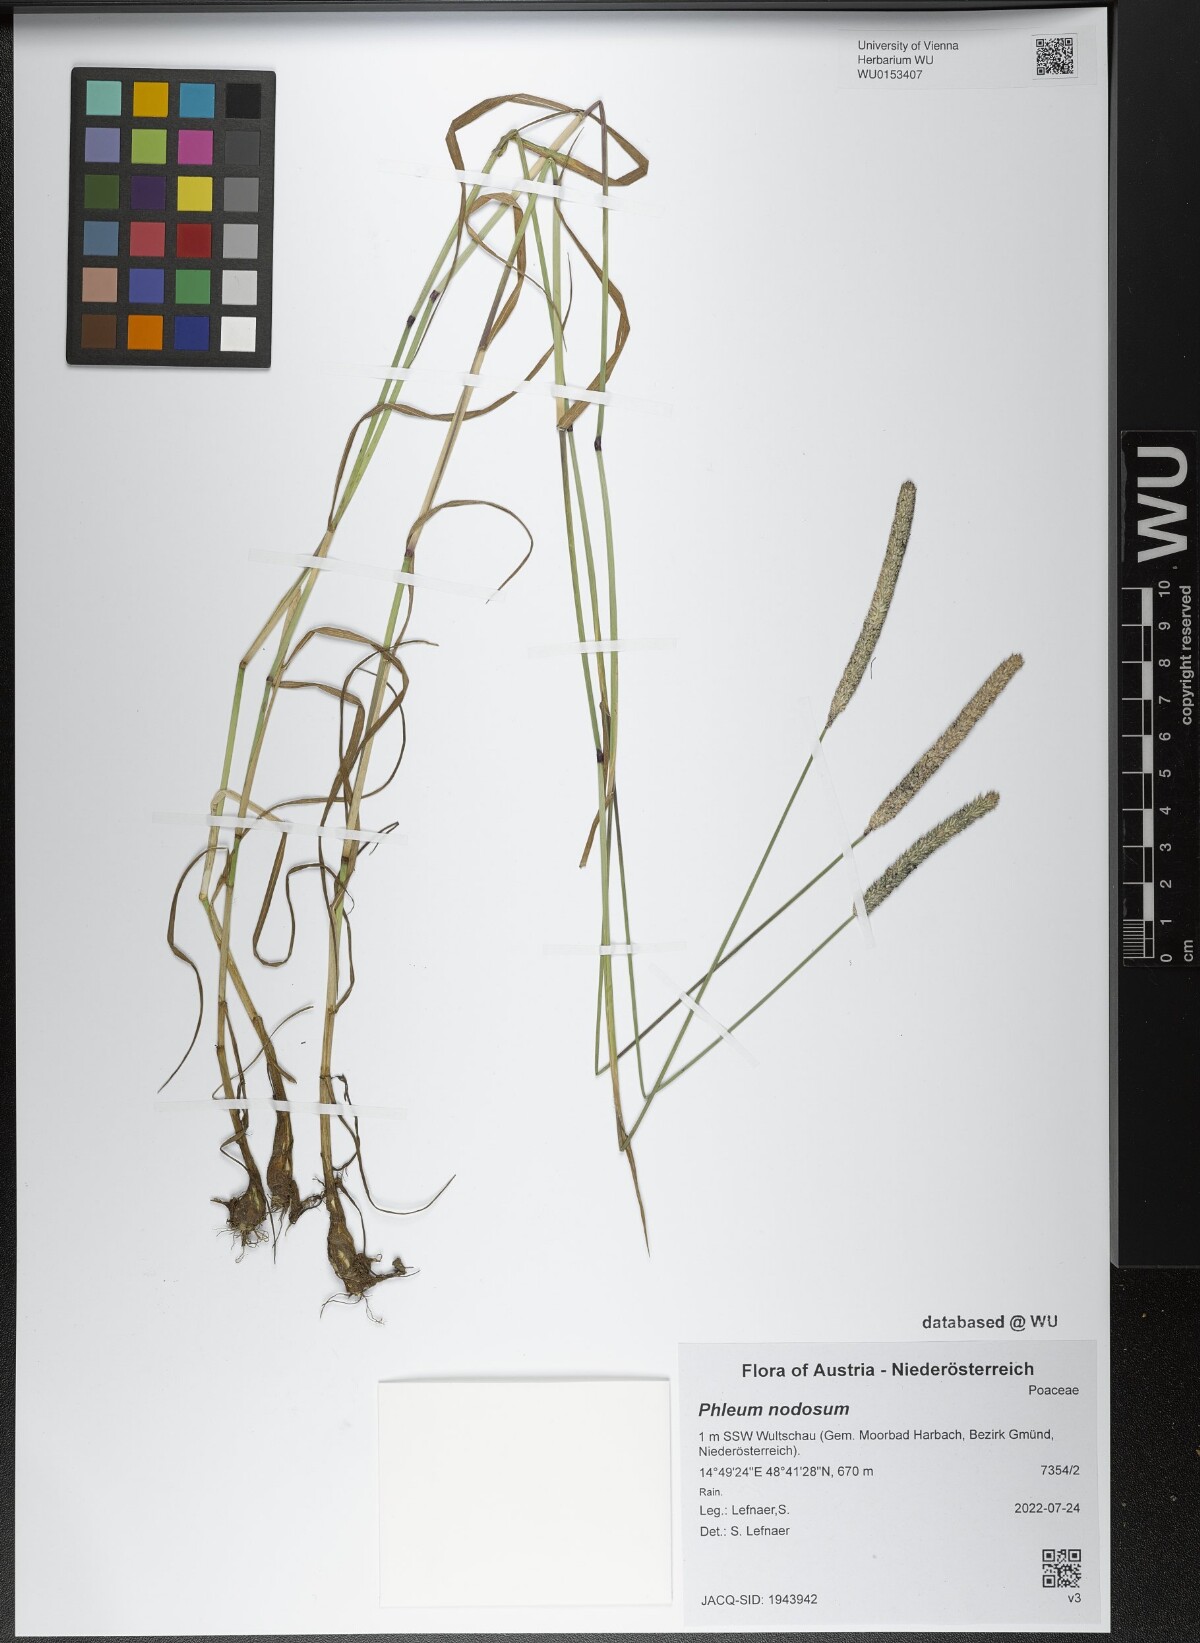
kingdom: Plantae
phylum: Tracheophyta
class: Liliopsida
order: Poales
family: Poaceae
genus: Phleum
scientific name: Phleum pratense
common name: Timothy grass
